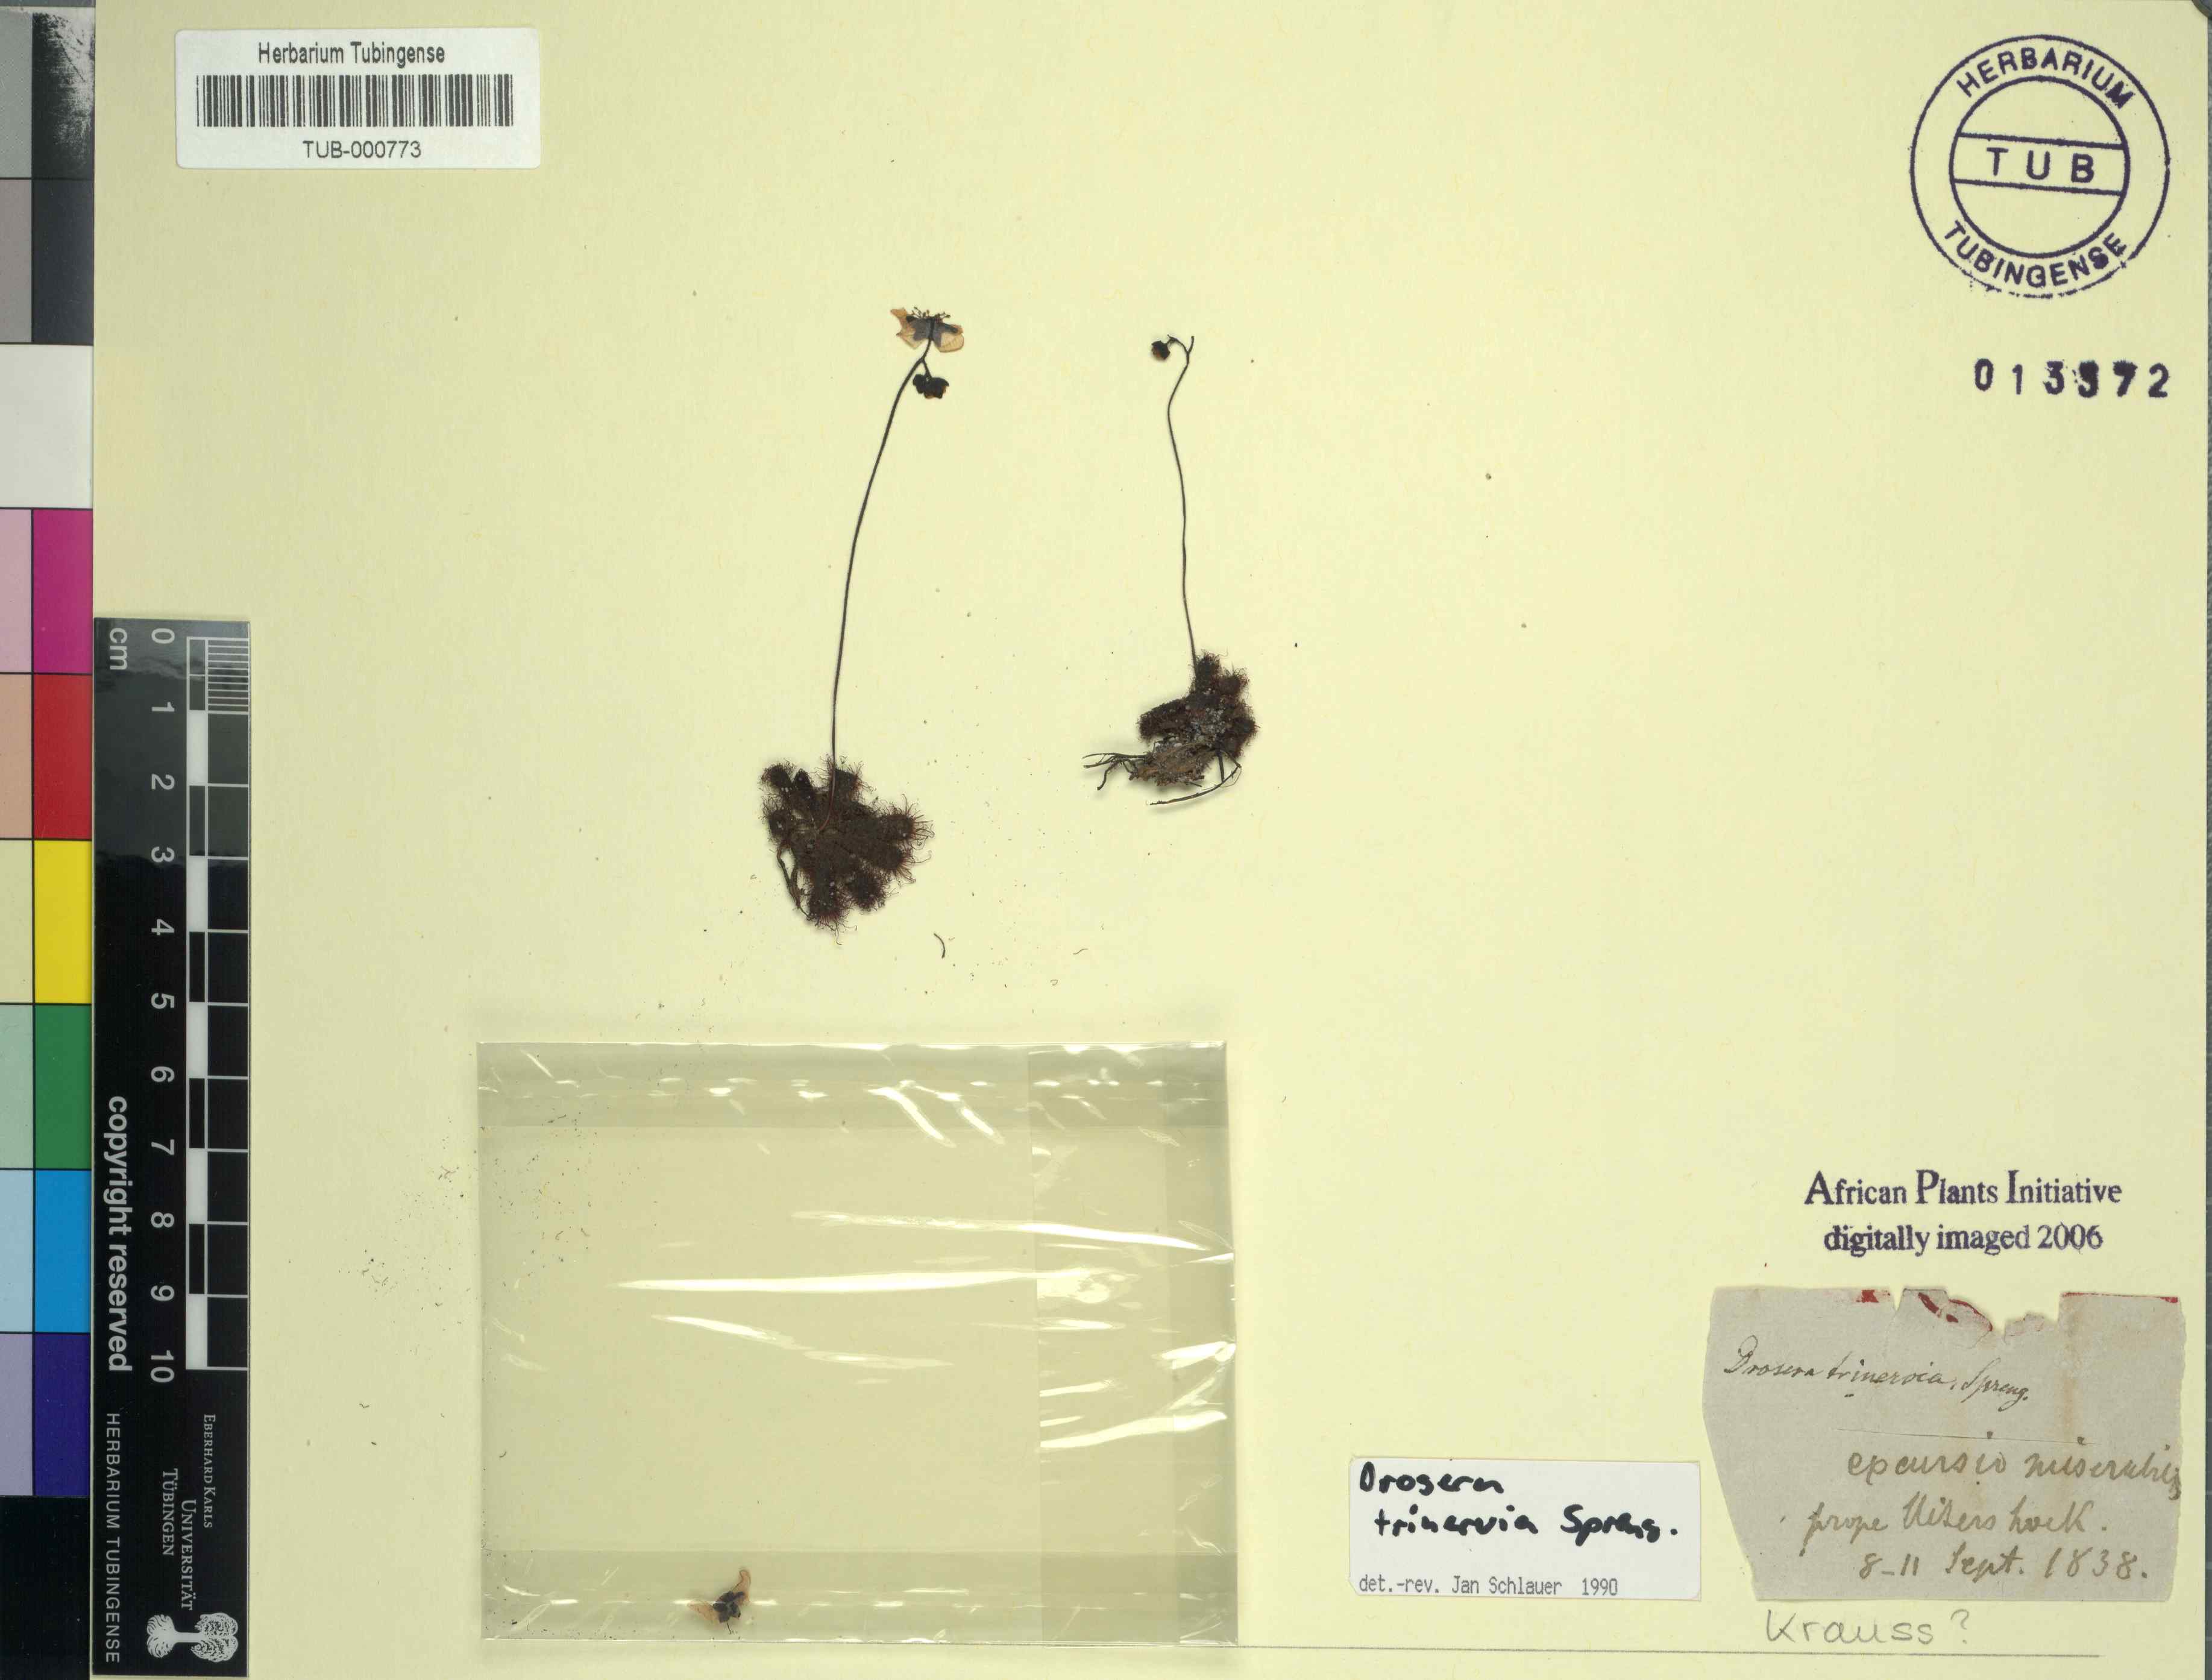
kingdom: Plantae
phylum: Tracheophyta
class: Magnoliopsida
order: Caryophyllales
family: Droseraceae
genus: Drosera
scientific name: Drosera trinervia
